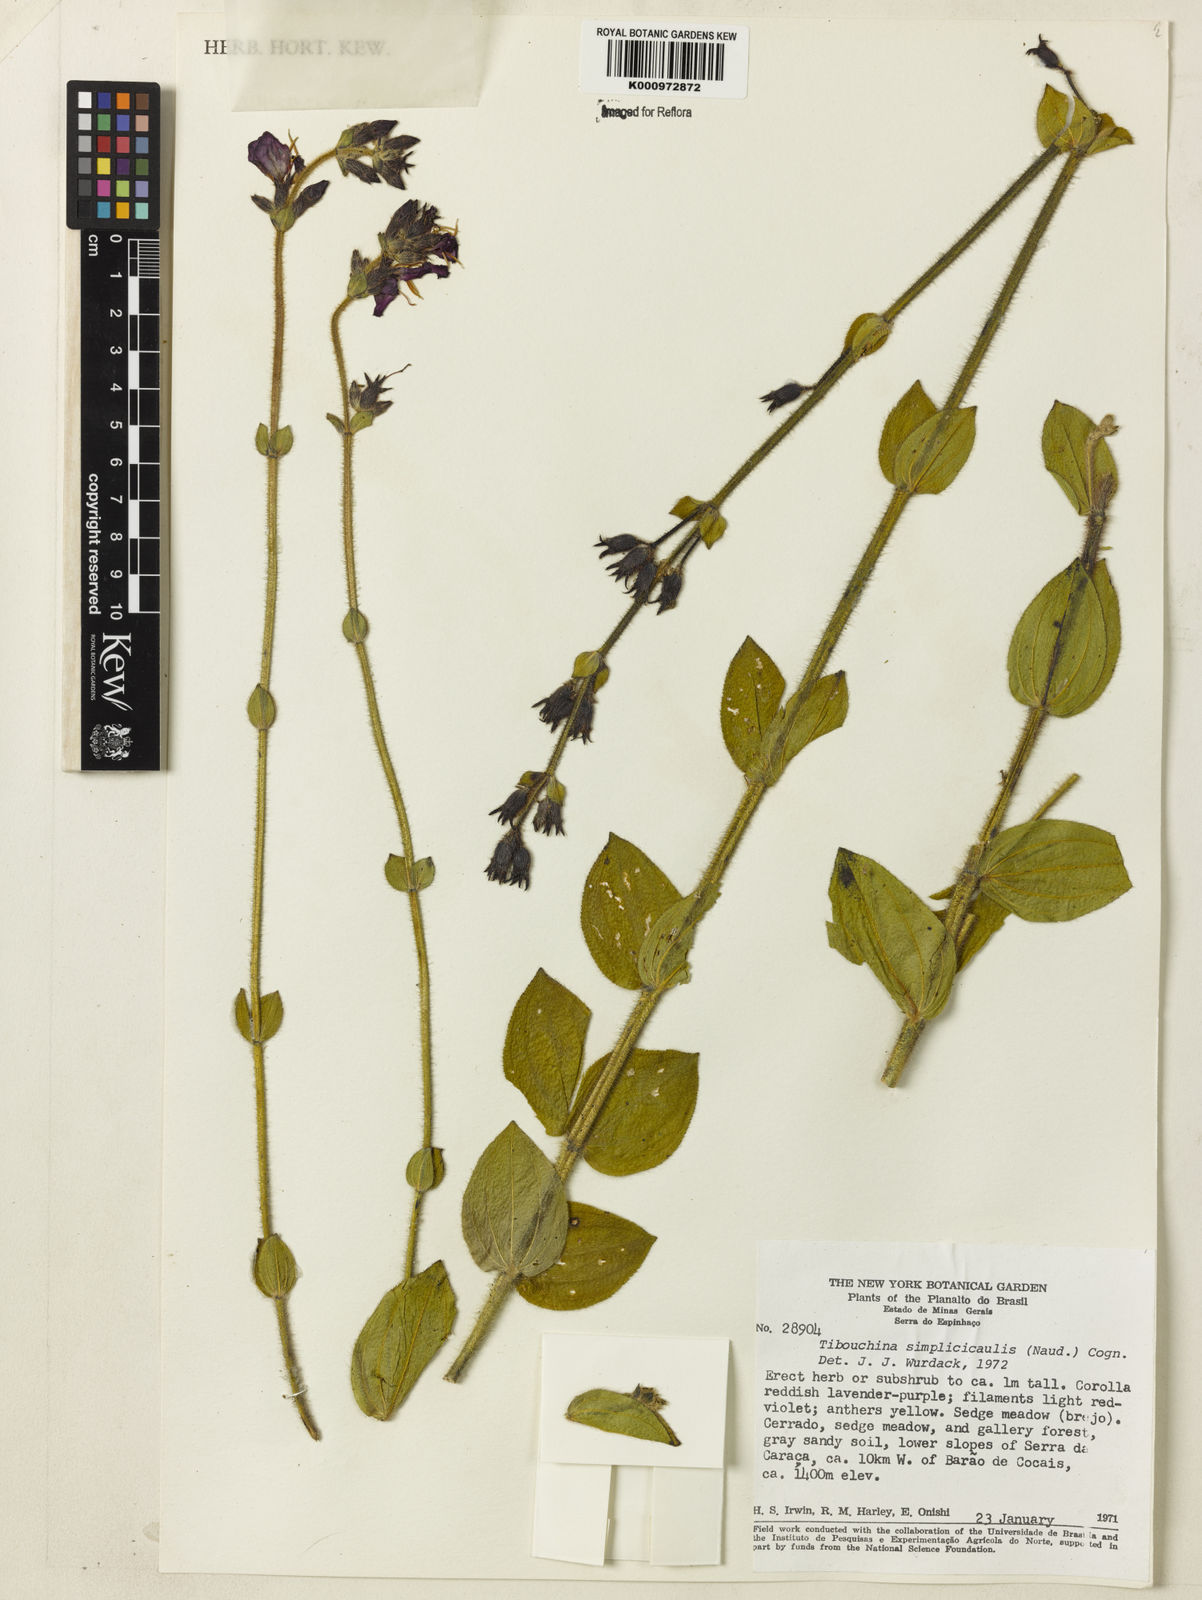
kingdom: Plantae
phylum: Tracheophyta
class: Magnoliopsida
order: Myrtales
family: Melastomataceae
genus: Chaetogastra
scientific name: Chaetogastra simplicicaulis
